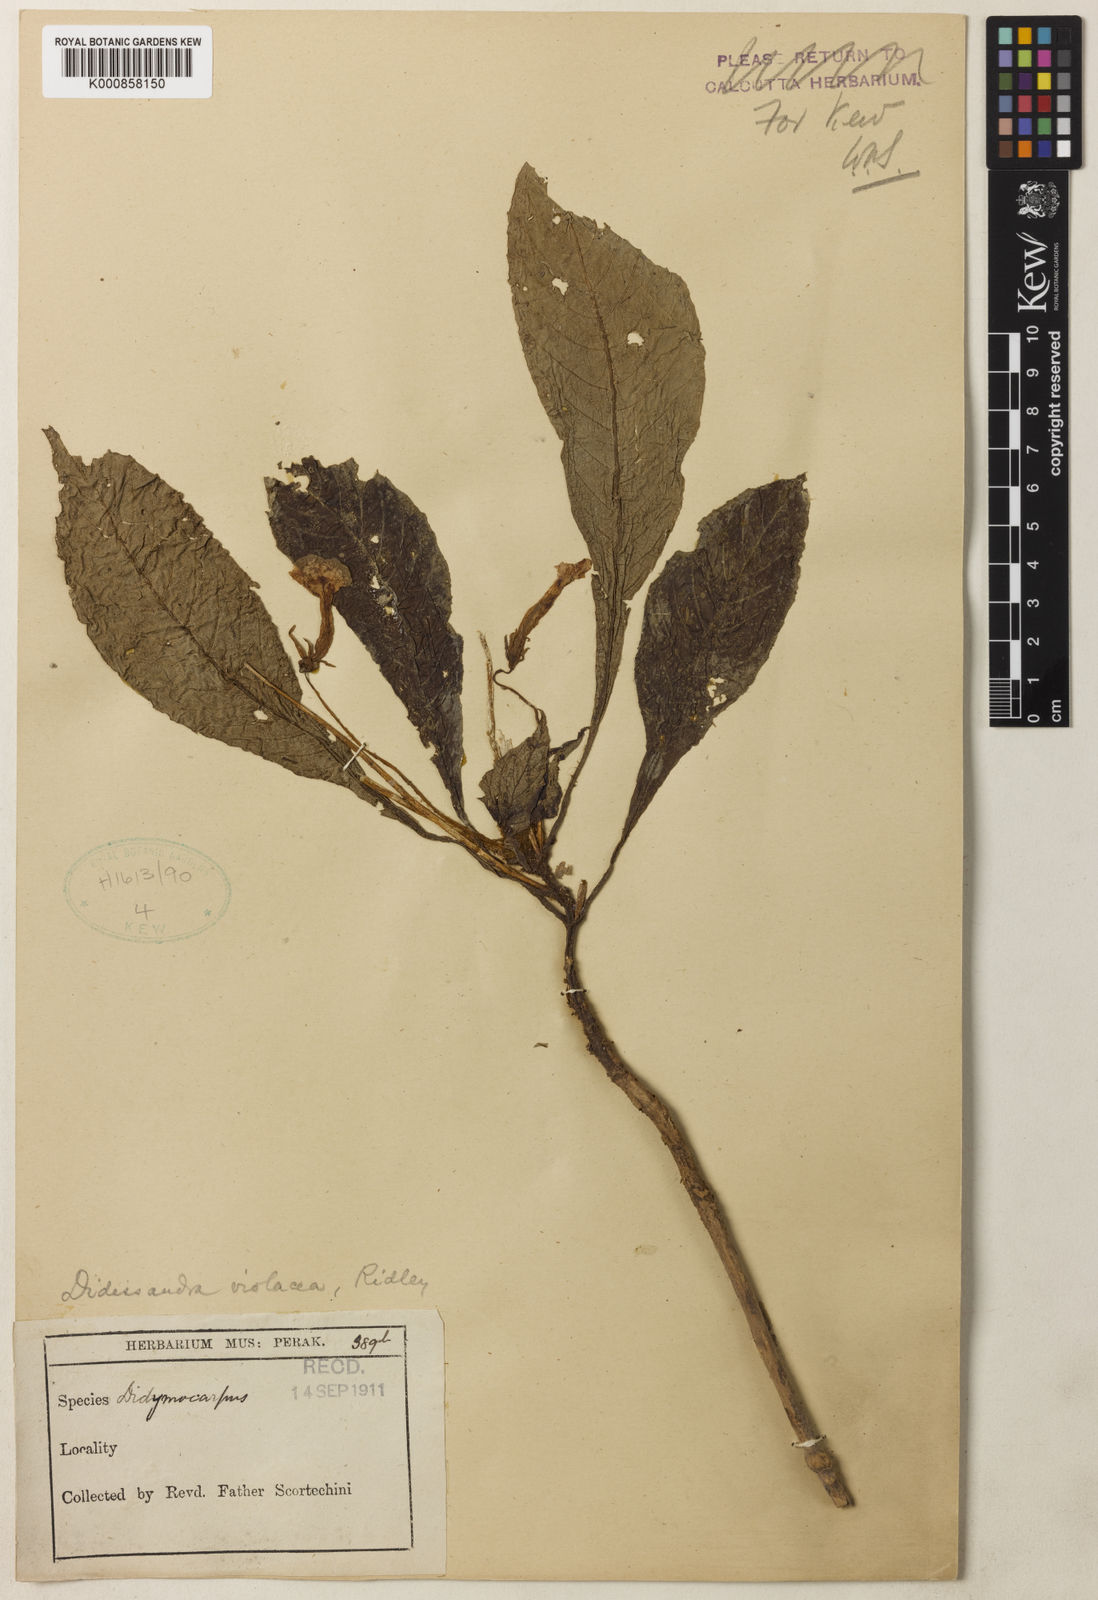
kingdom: Plantae
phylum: Tracheophyta
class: Magnoliopsida
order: Lamiales
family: Gesneriaceae
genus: Ridleyandra
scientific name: Ridleyandra violacea
